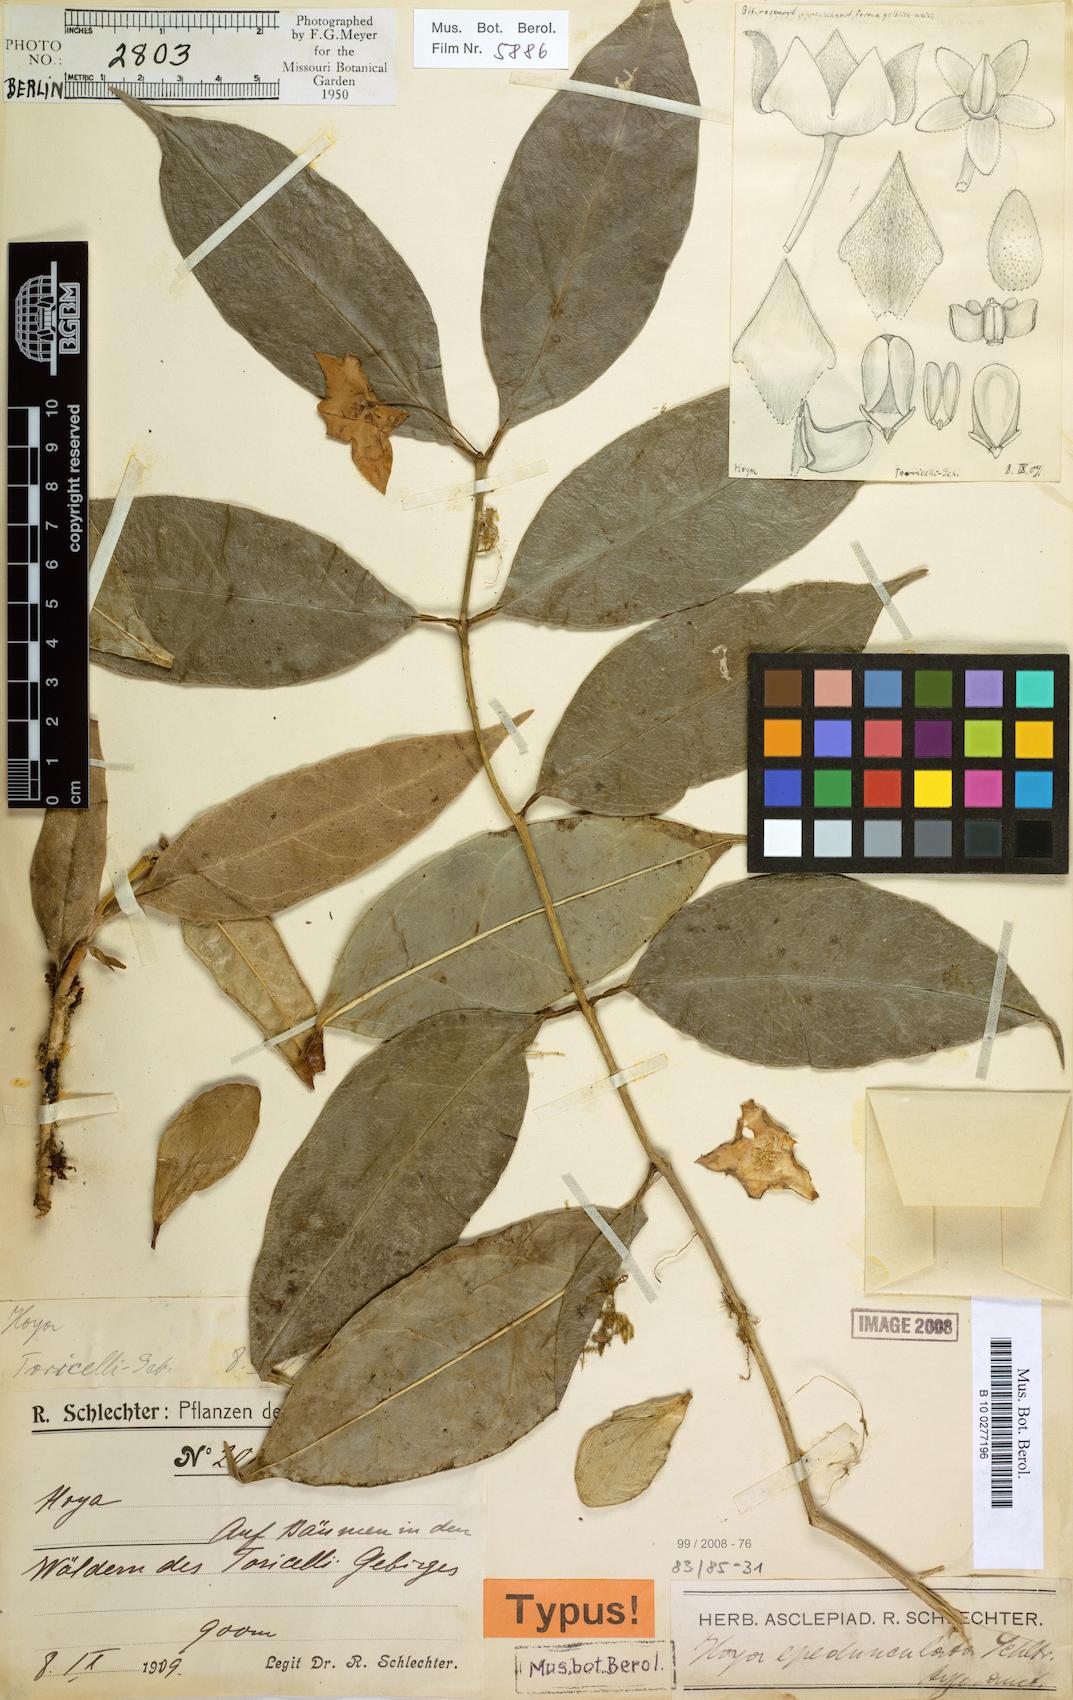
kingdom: Plantae
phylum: Tracheophyta
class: Magnoliopsida
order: Gentianales
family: Apocynaceae
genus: Hoya
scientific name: Hoya epedunculata
